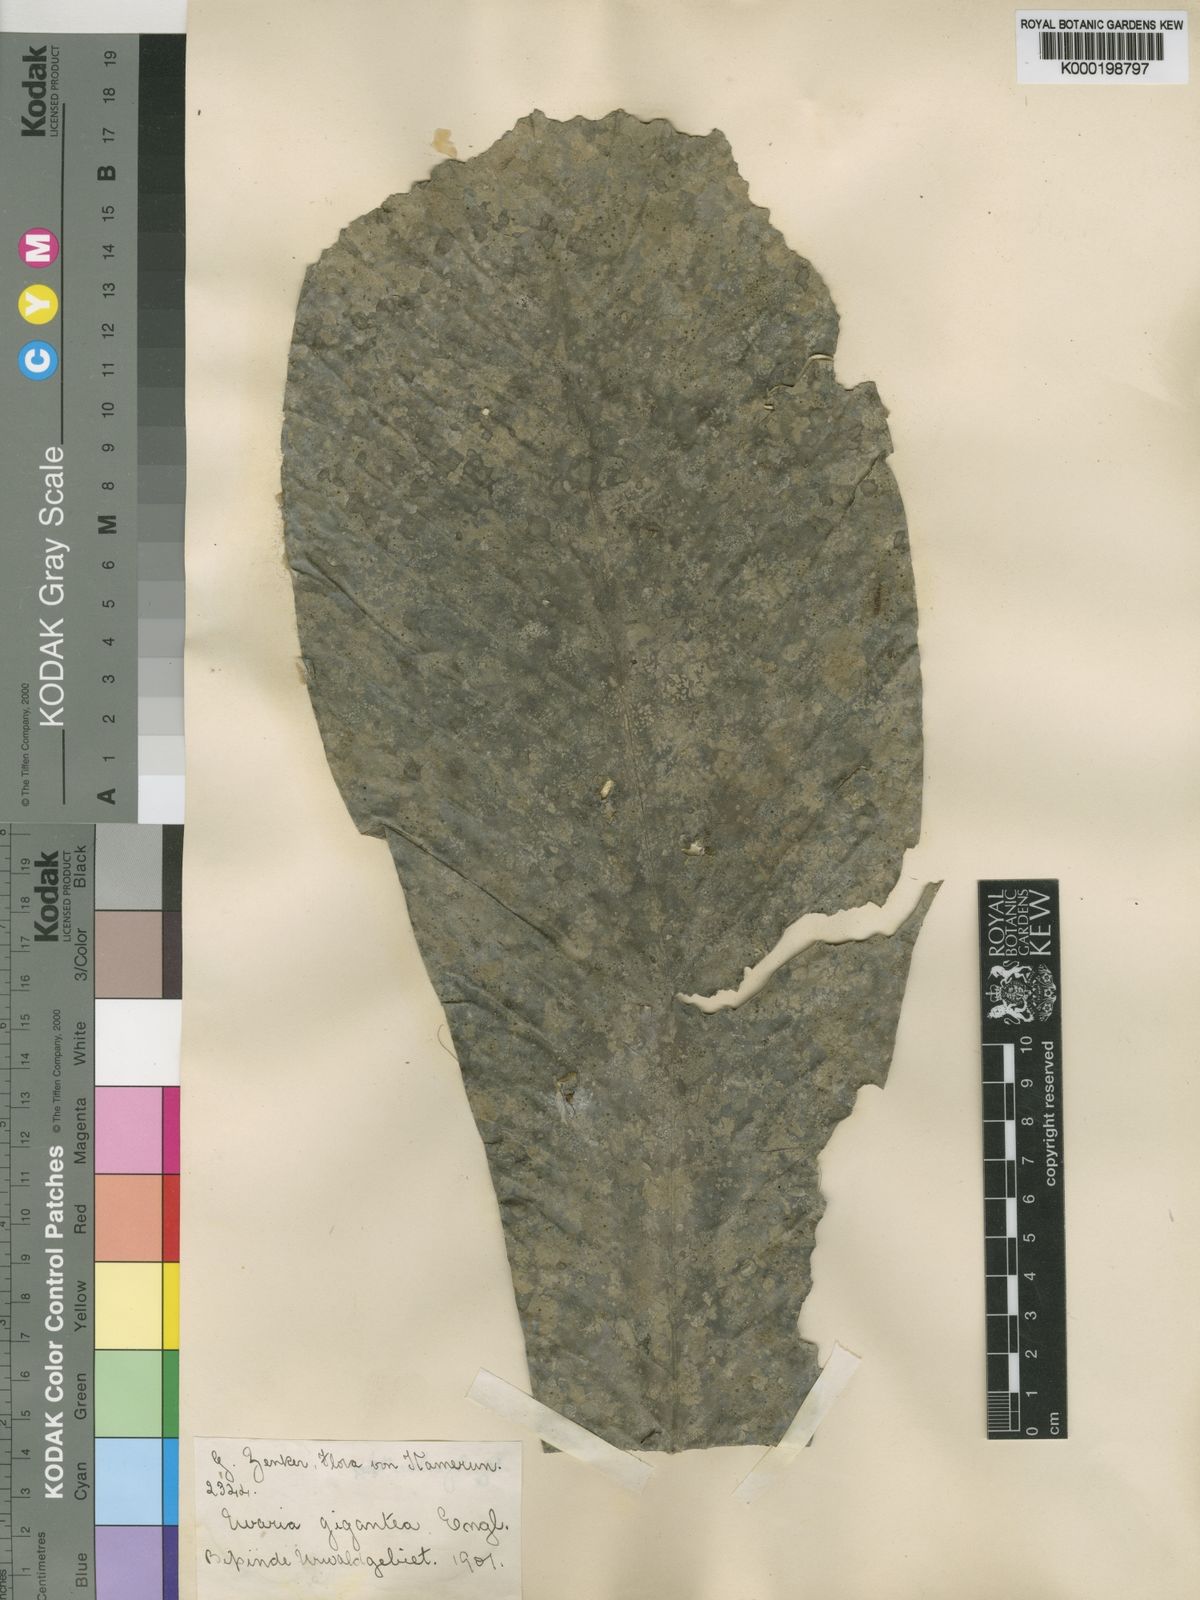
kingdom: Plantae
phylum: Tracheophyta
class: Magnoliopsida
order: Magnoliales
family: Annonaceae
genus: Uvariodendron
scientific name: Uvariodendron calophyllum
